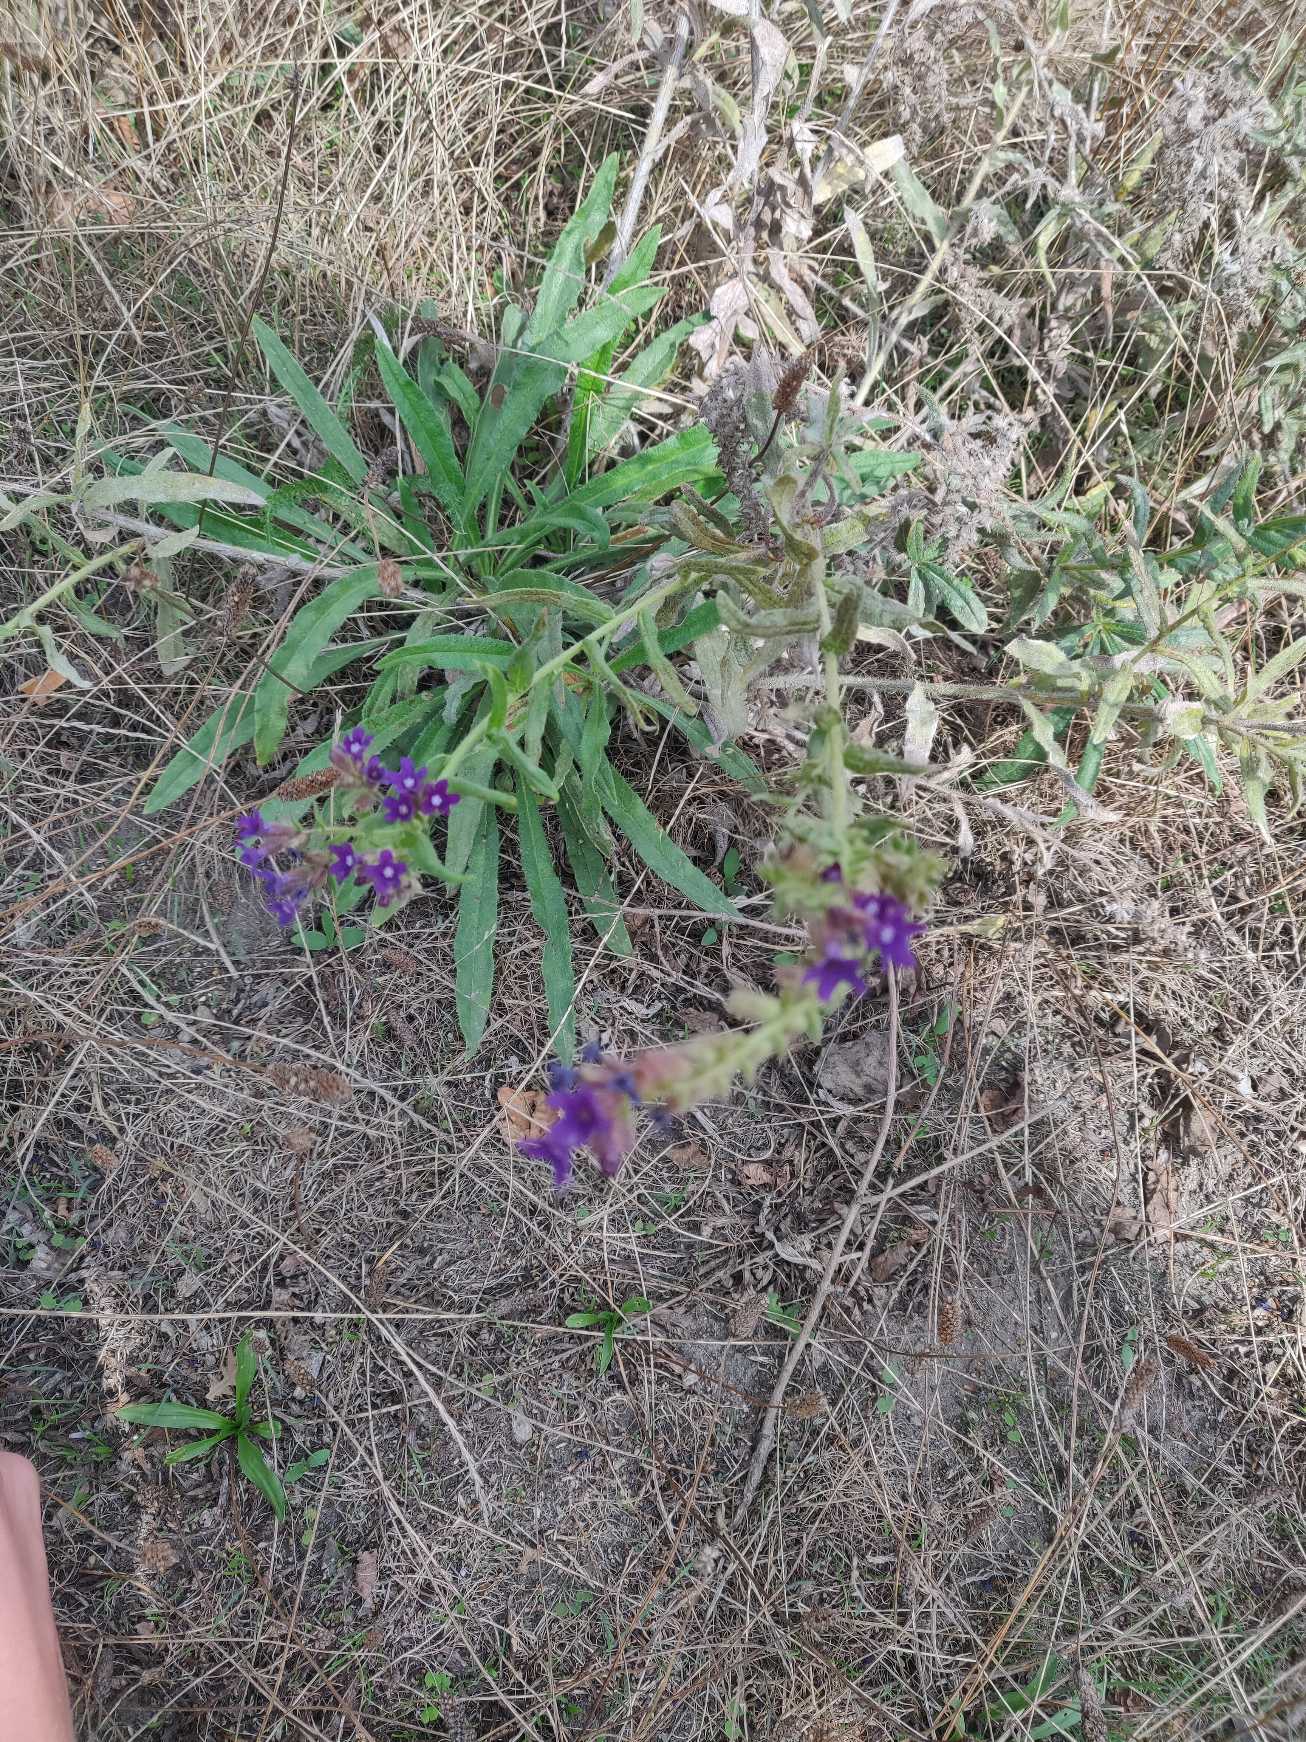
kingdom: Plantae
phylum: Tracheophyta
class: Magnoliopsida
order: Boraginales
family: Boraginaceae
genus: Anchusa
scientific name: Anchusa officinalis
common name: Læge-oksetunge
